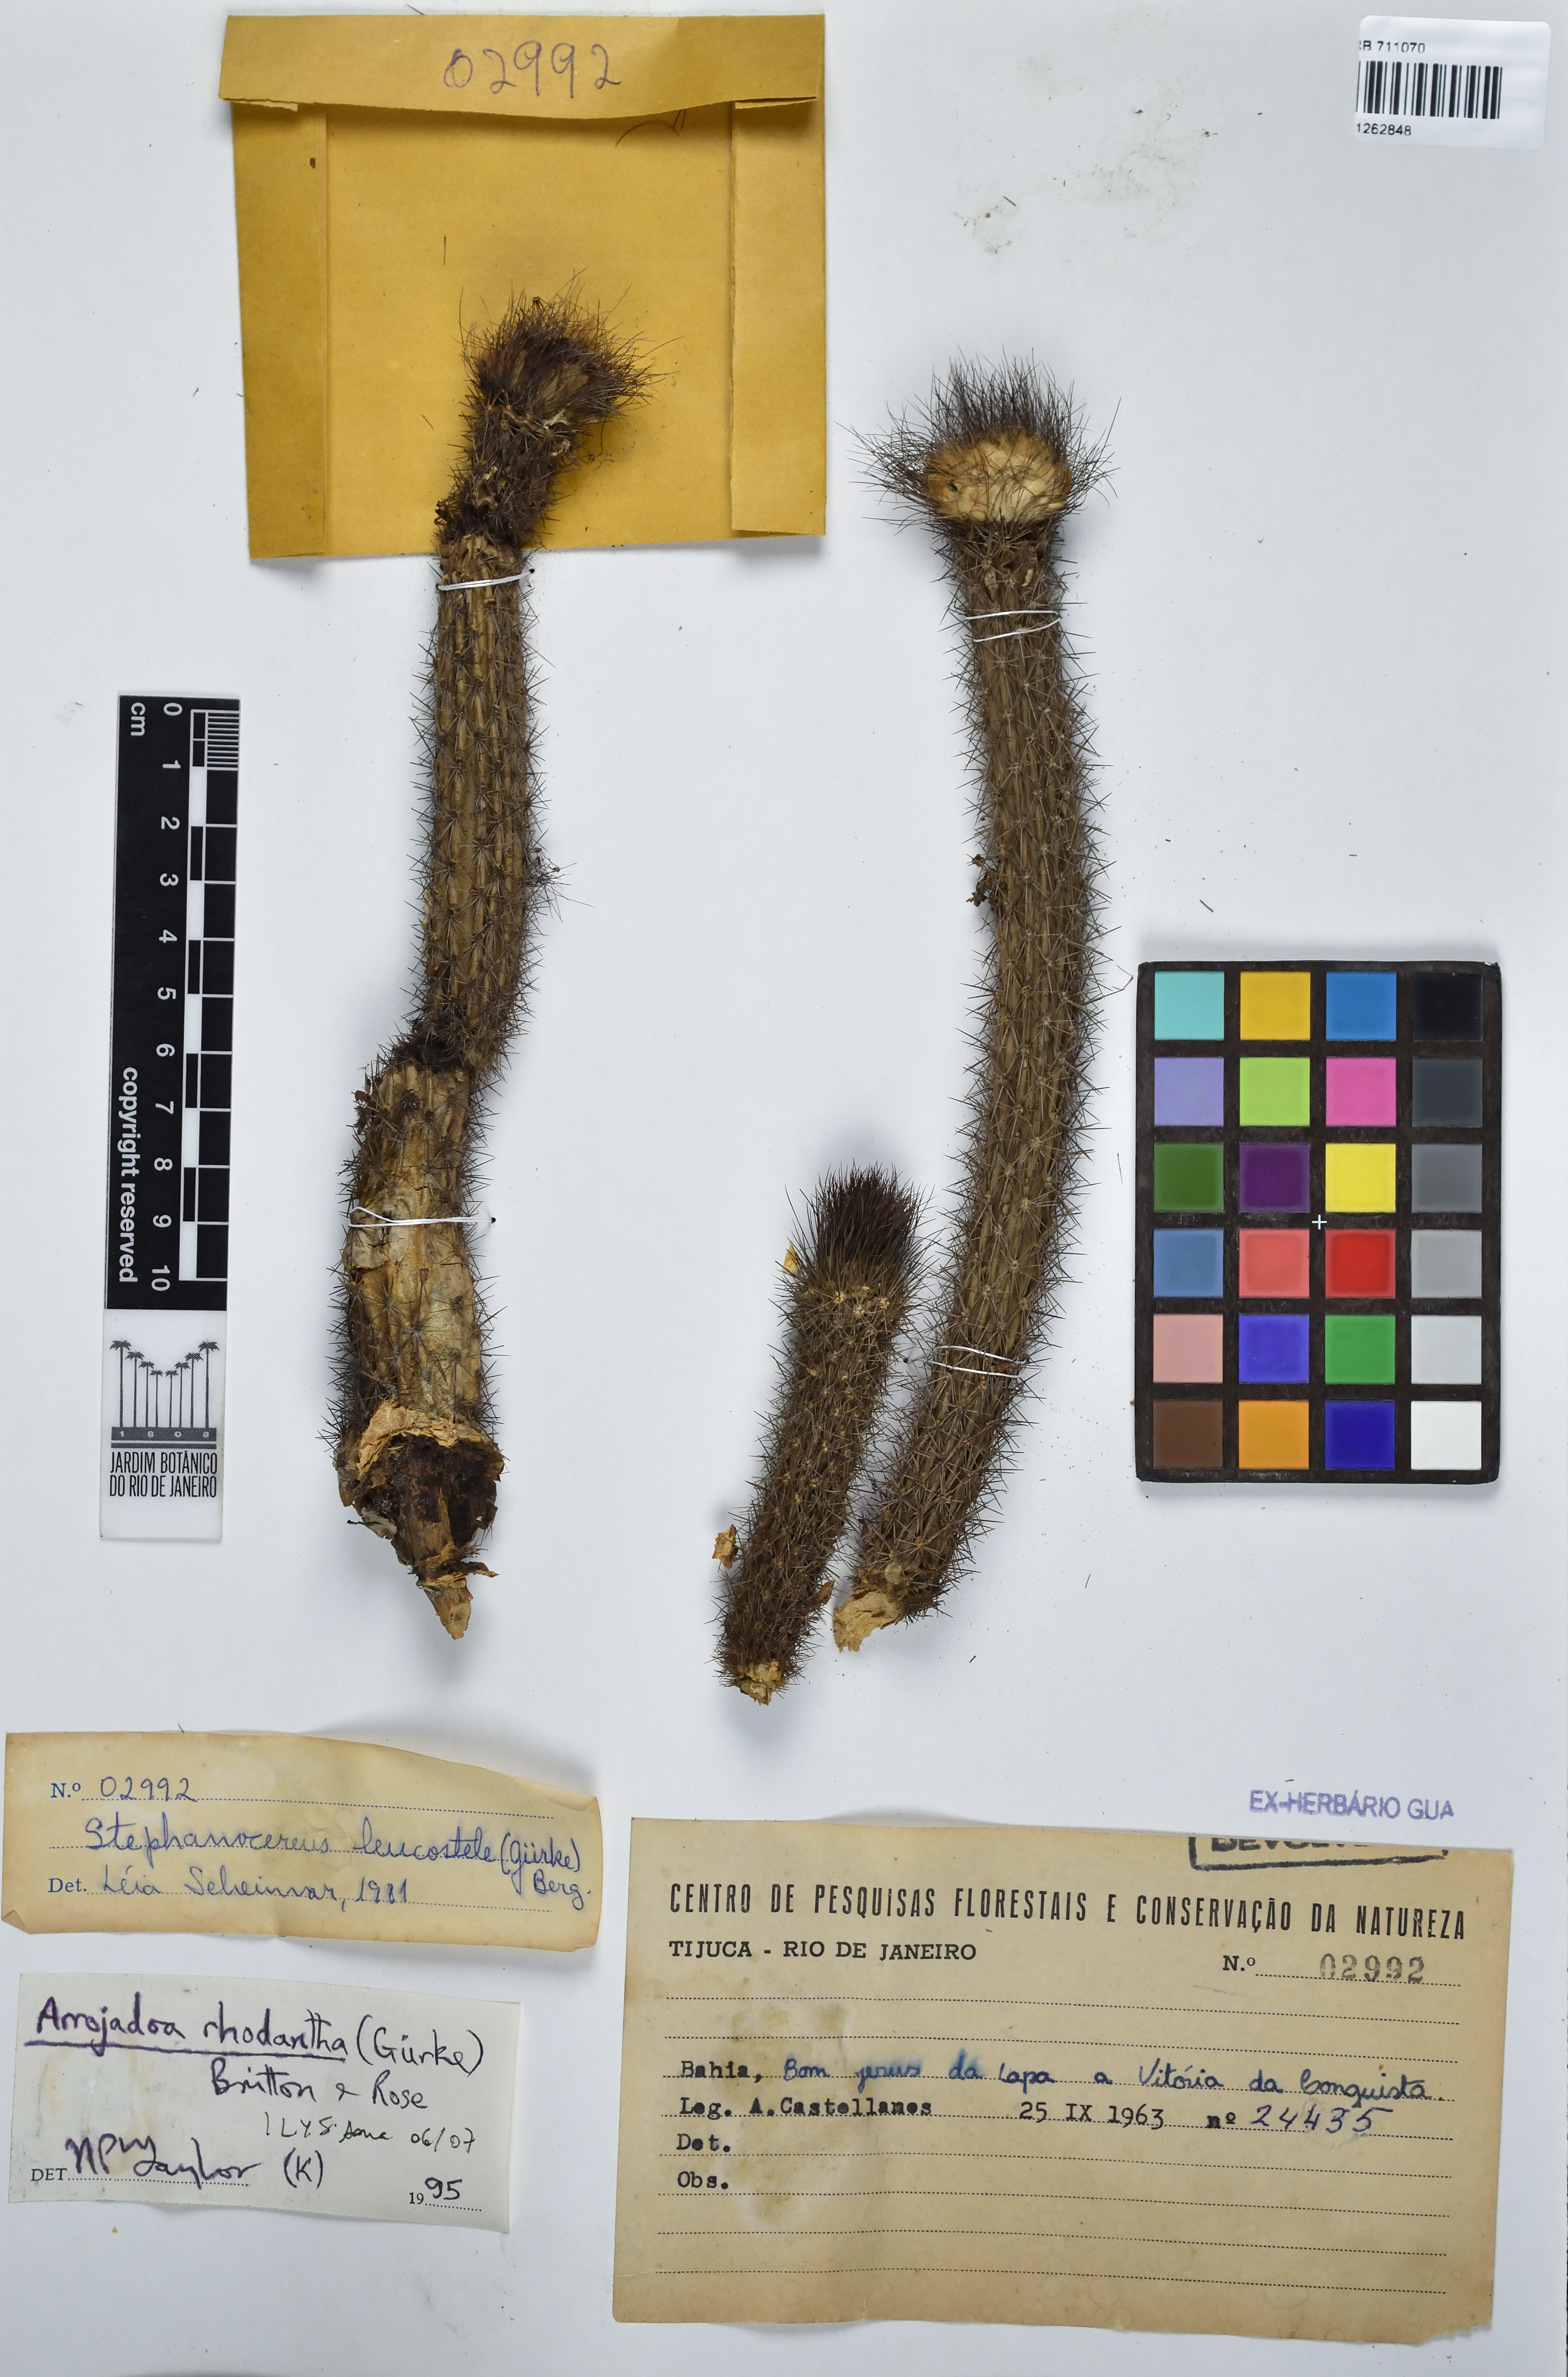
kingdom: Plantae
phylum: Tracheophyta
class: Magnoliopsida
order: Caryophyllales
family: Cactaceae
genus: Arrojadoa
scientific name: Arrojadoa rhodantha
